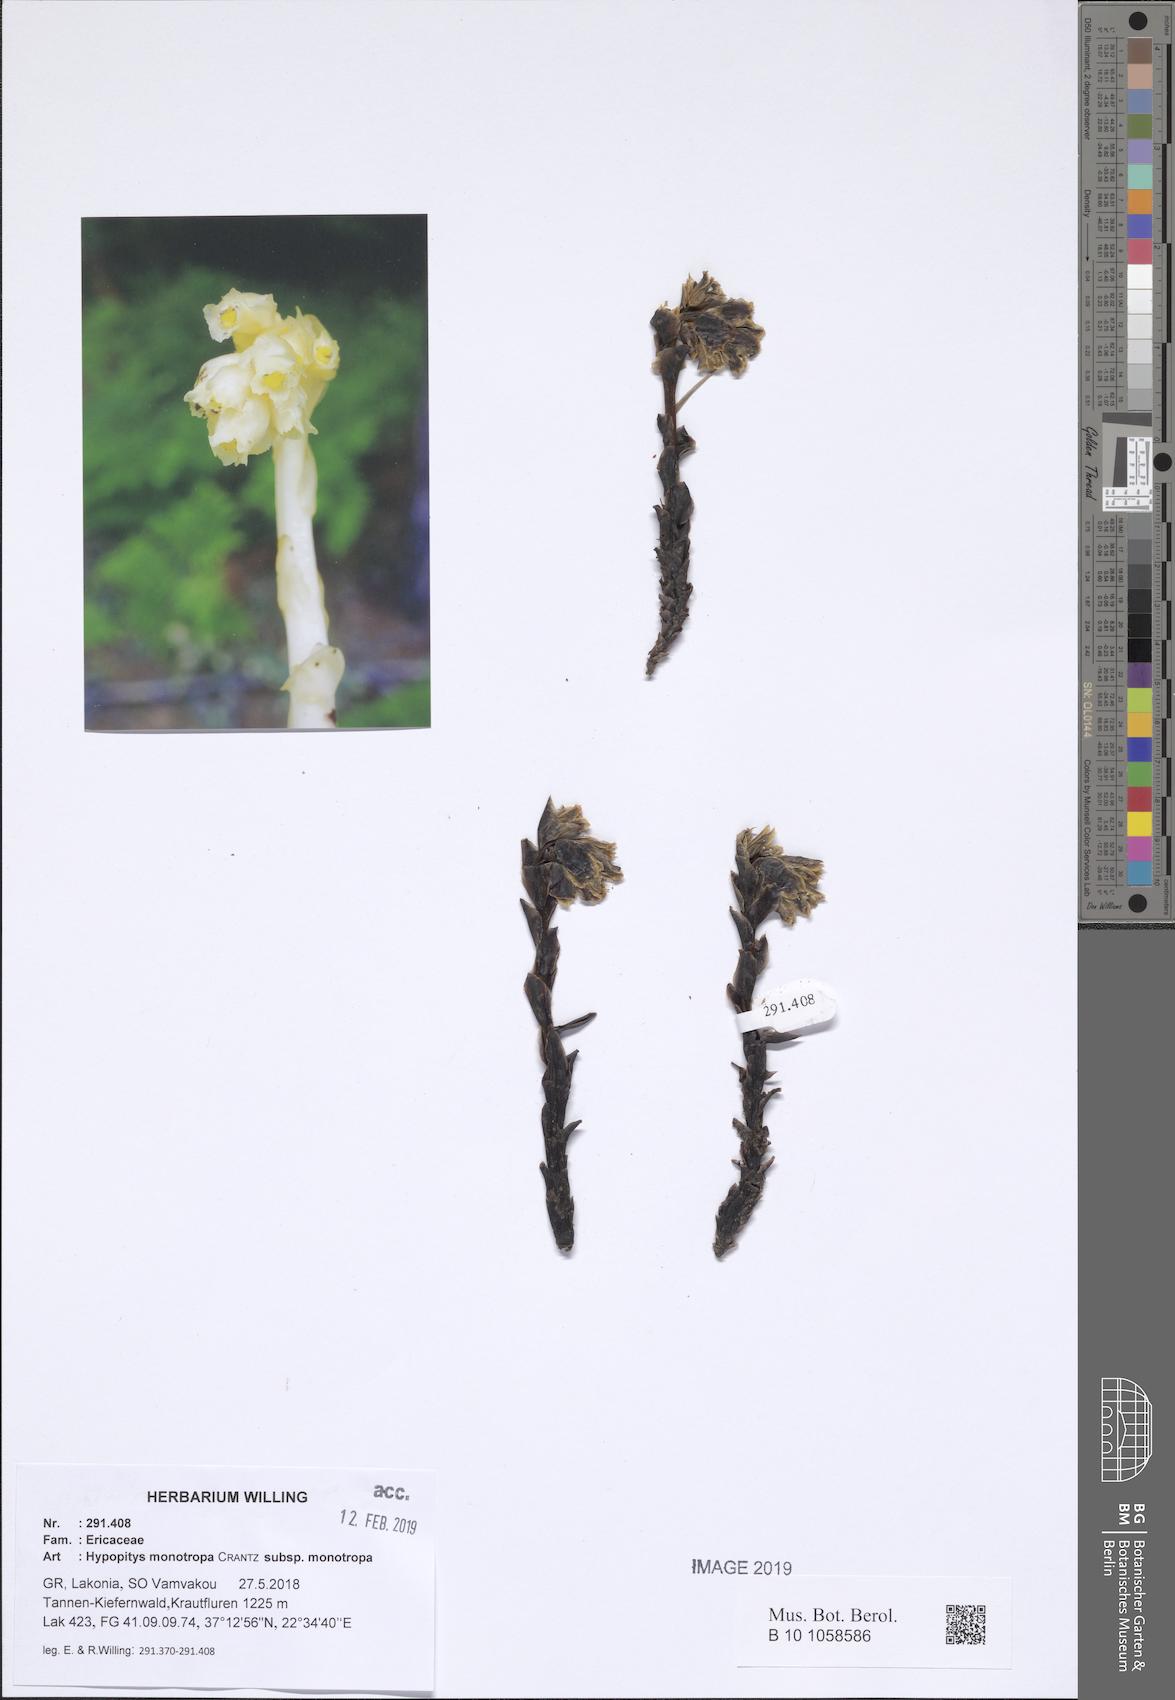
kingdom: Plantae
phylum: Tracheophyta
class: Magnoliopsida
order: Ericales
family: Ericaceae
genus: Hypopitys
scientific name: Hypopitys monotropa
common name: Yellow bird's-nest
